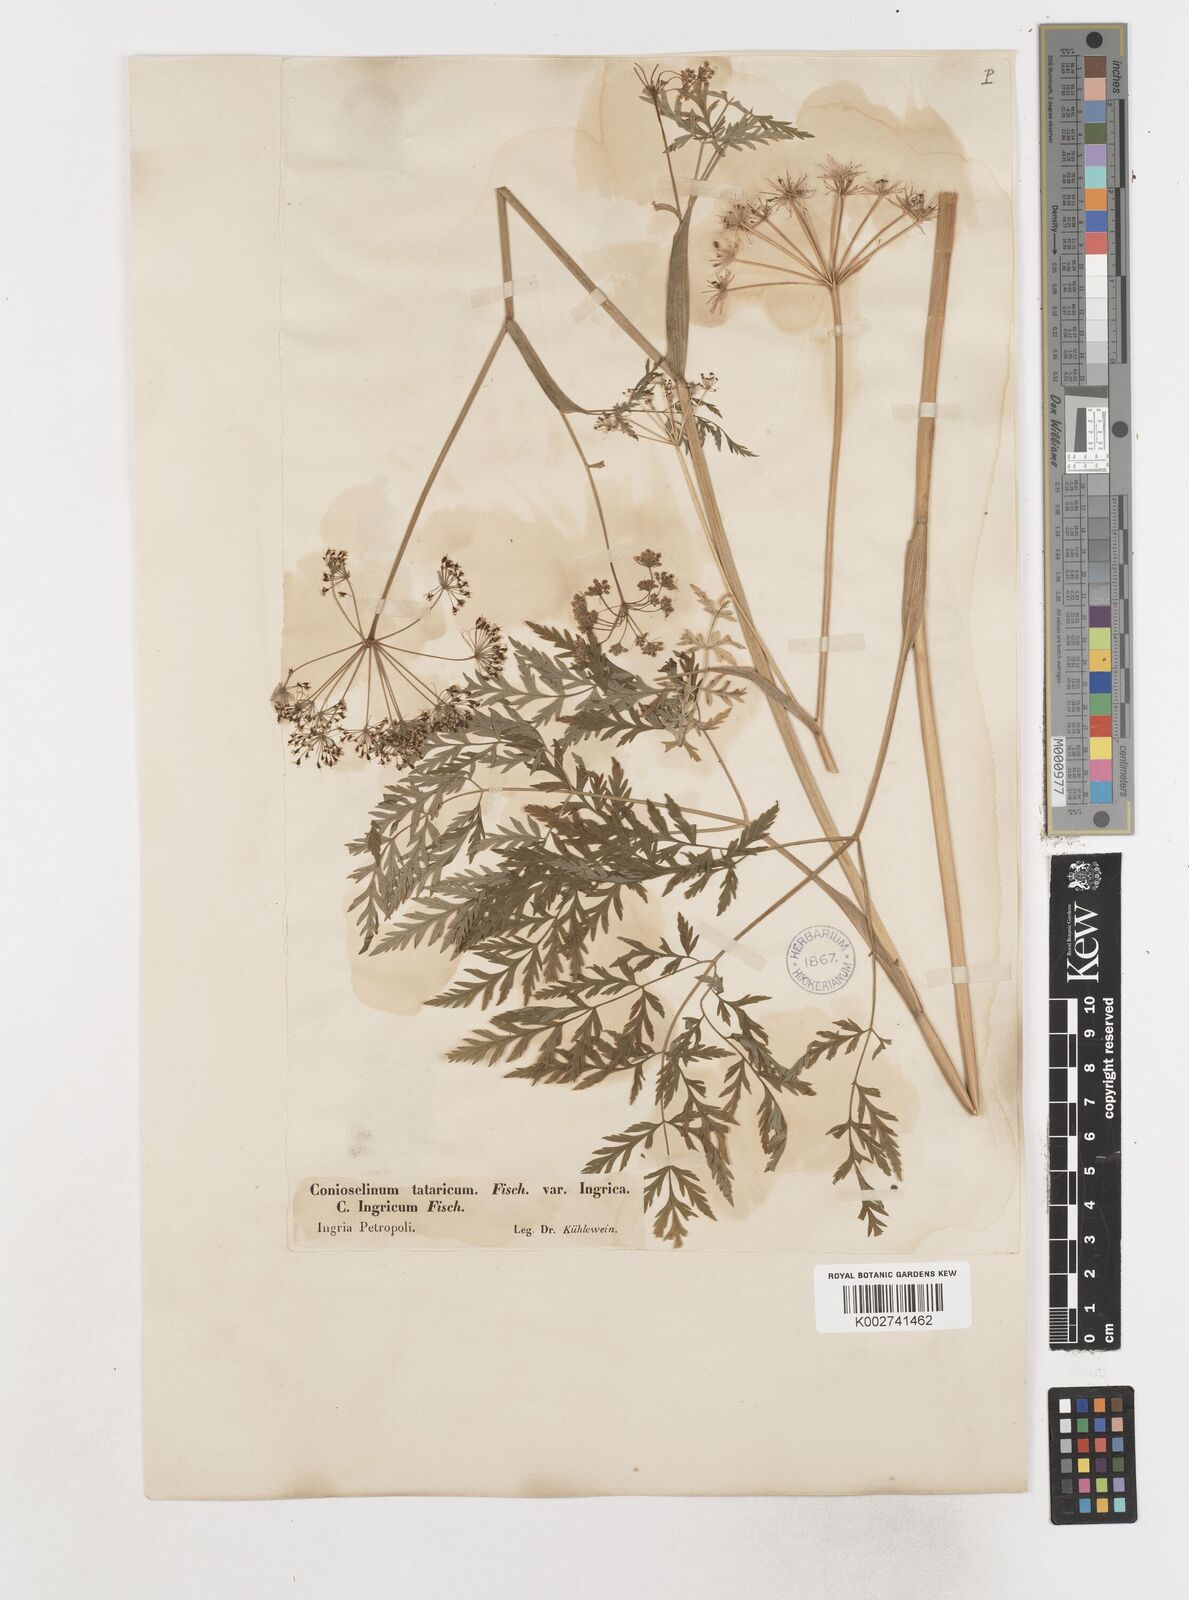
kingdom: Plantae
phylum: Tracheophyta
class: Magnoliopsida
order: Apiales
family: Apiaceae
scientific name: Apiaceae
